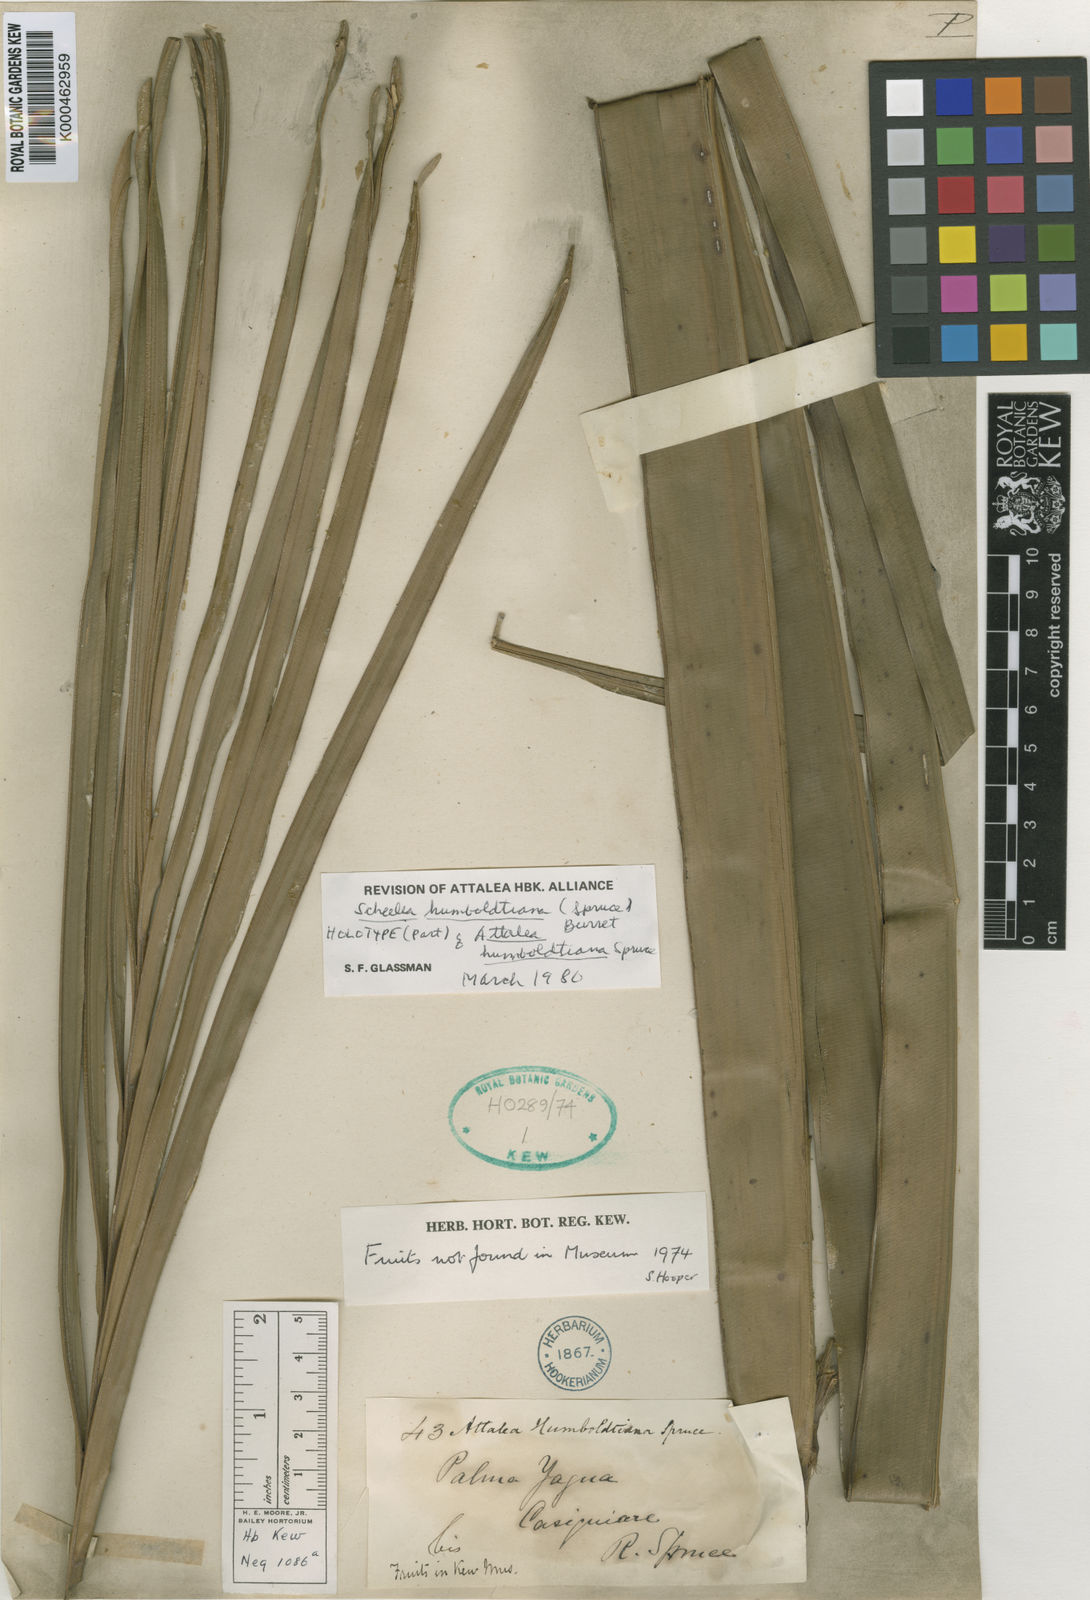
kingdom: Plantae
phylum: Tracheophyta
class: Liliopsida
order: Arecales
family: Arecaceae
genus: Attalea
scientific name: Attalea butyracea
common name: Kuakish
